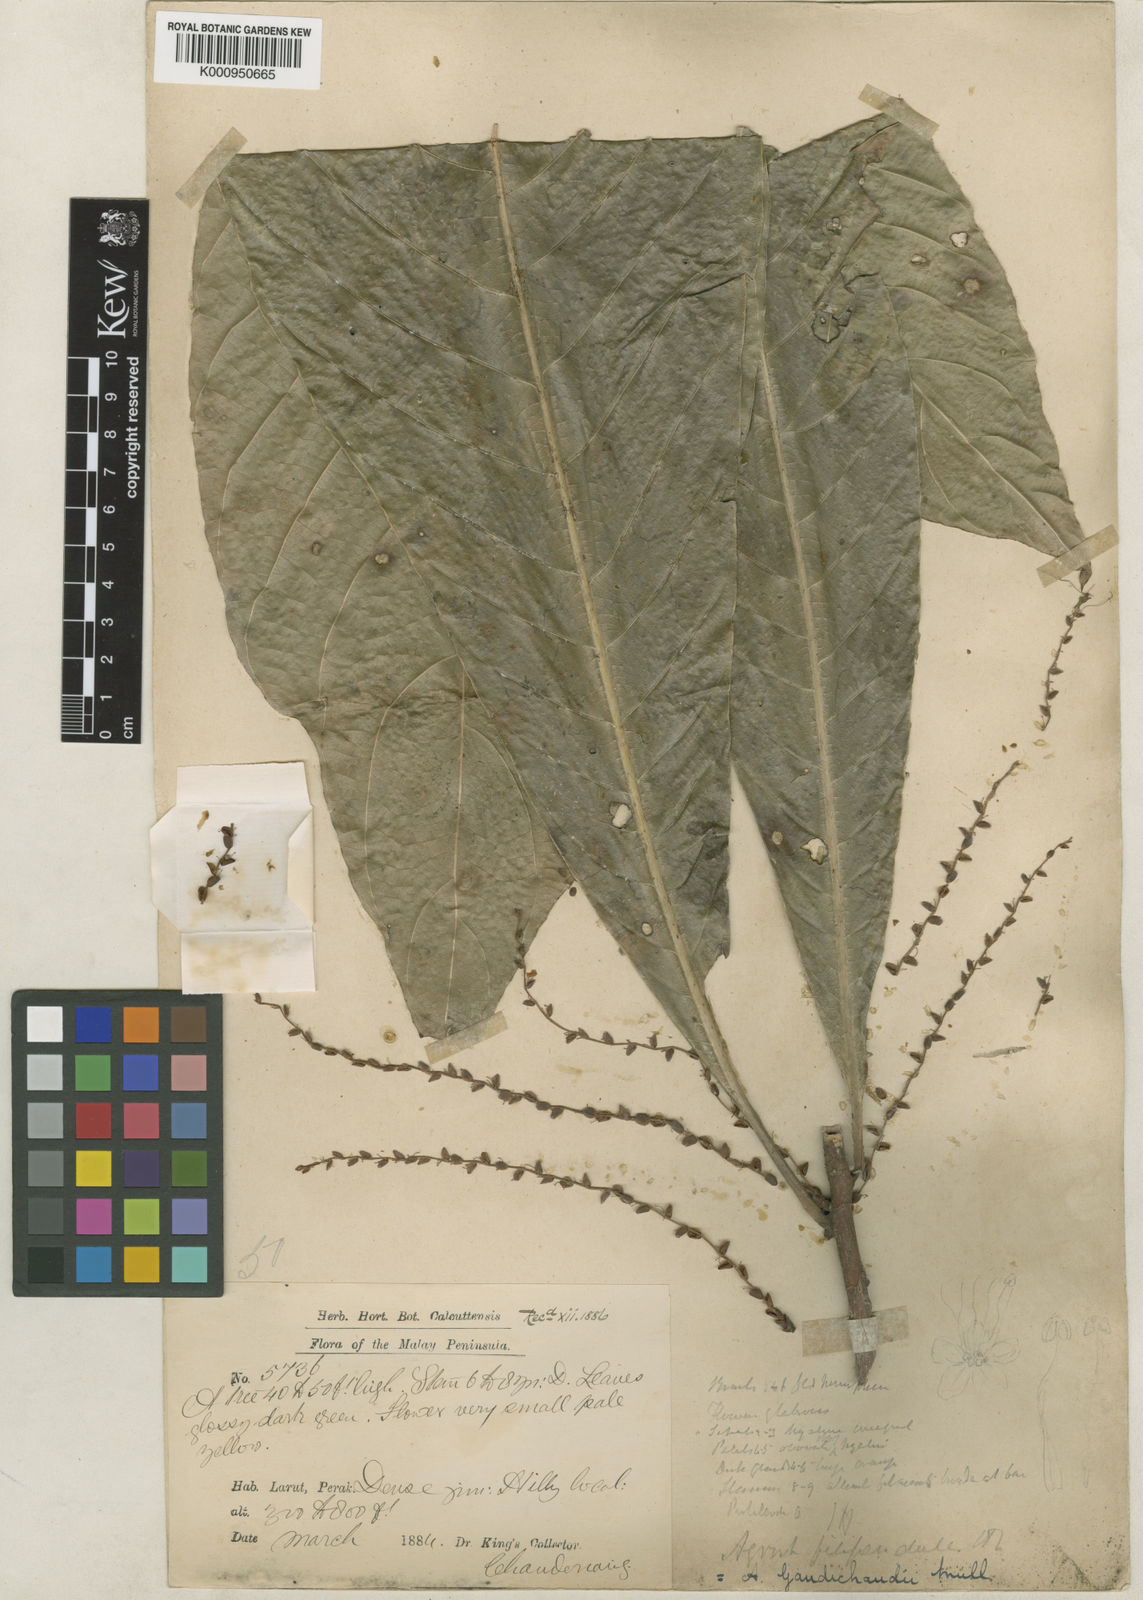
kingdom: Plantae
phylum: Tracheophyta
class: Magnoliopsida
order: Malpighiales
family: Euphorbiaceae
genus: Agrostistachys
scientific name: Agrostistachys gaudichaudii
